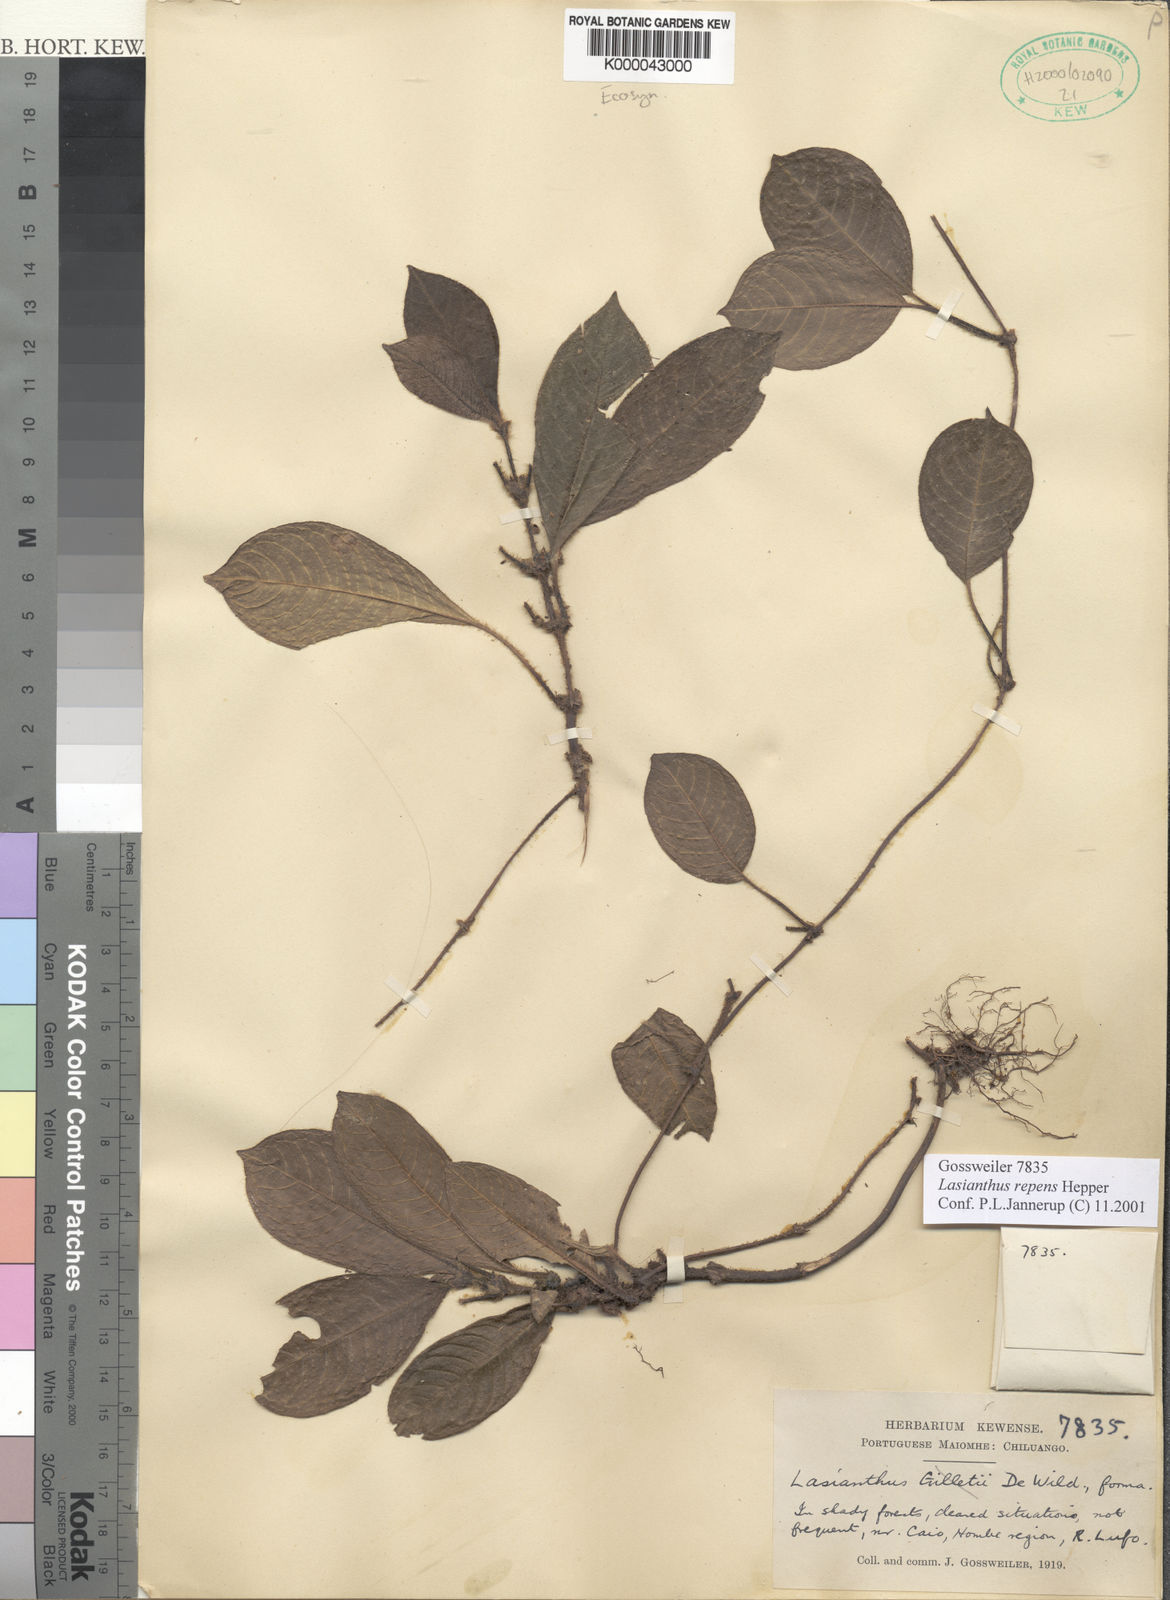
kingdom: Plantae
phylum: Tracheophyta
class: Magnoliopsida
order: Gentianales
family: Rubiaceae
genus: Lasianthus
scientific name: Lasianthus repens
